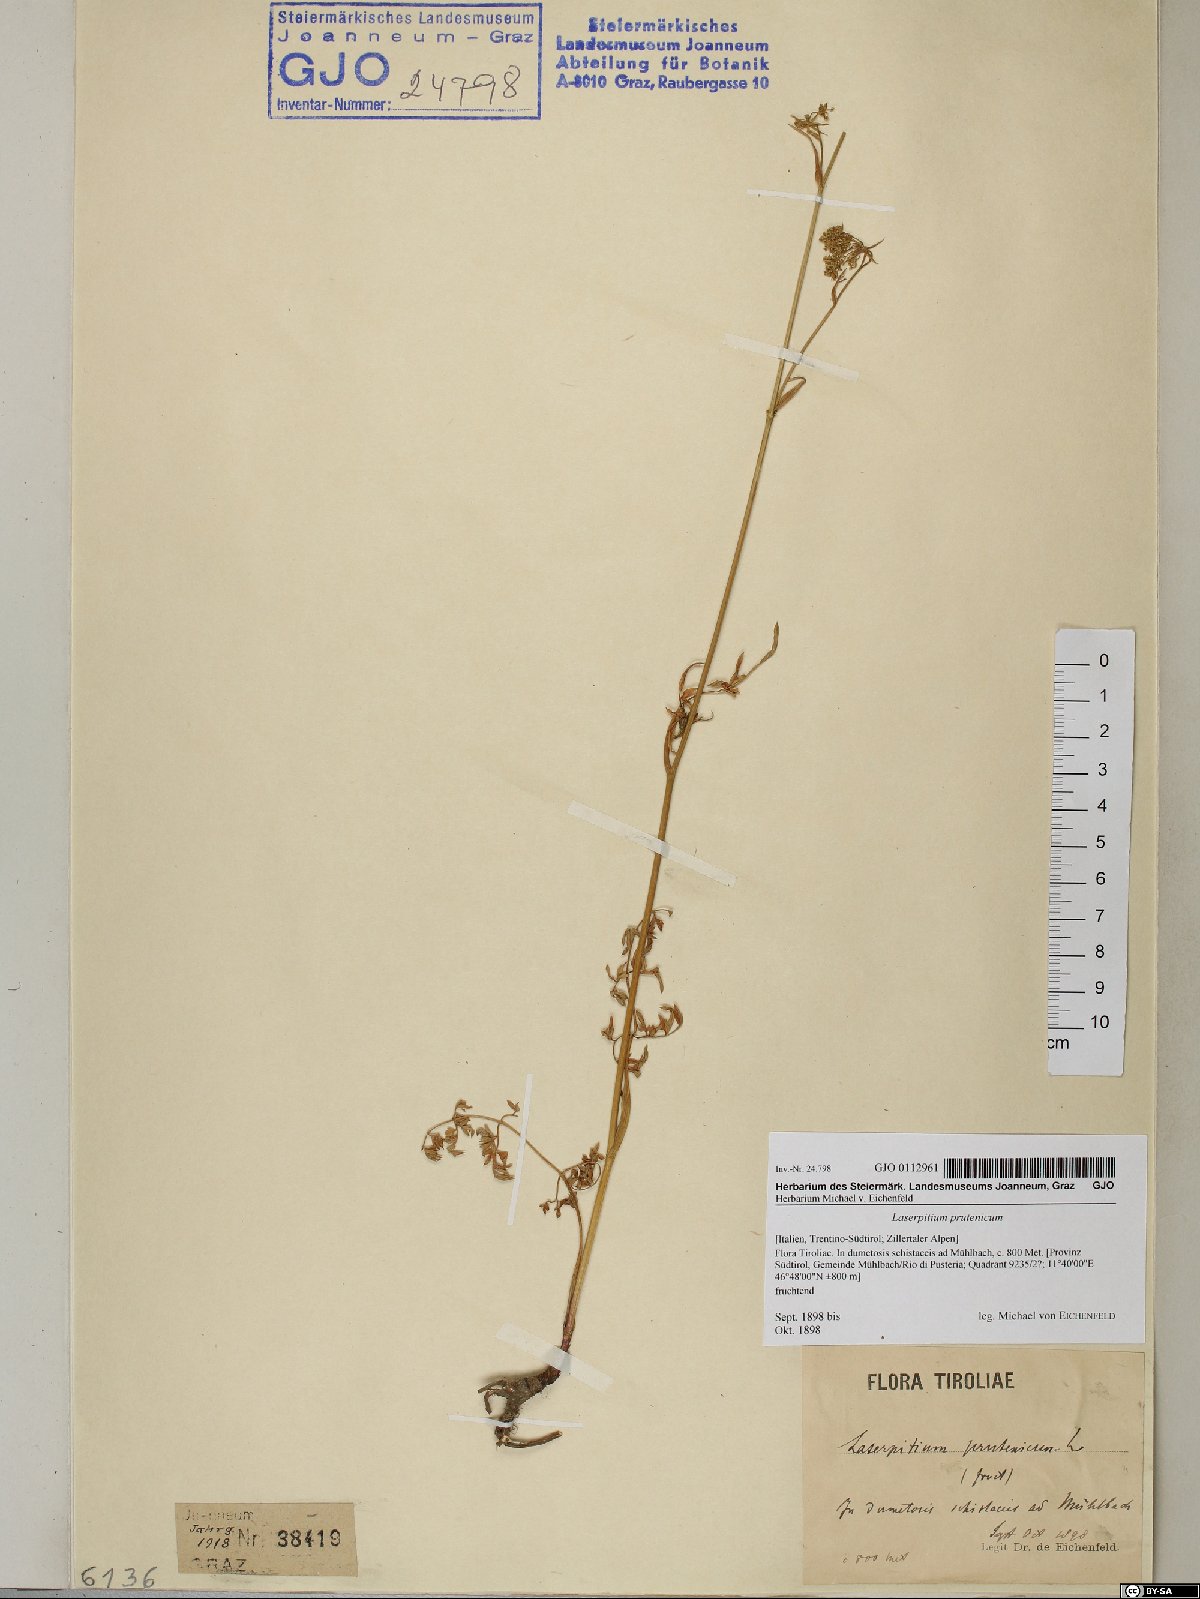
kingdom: Plantae
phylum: Tracheophyta
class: Magnoliopsida
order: Apiales
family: Apiaceae
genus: Silphiodaucus
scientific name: Silphiodaucus prutenicus
